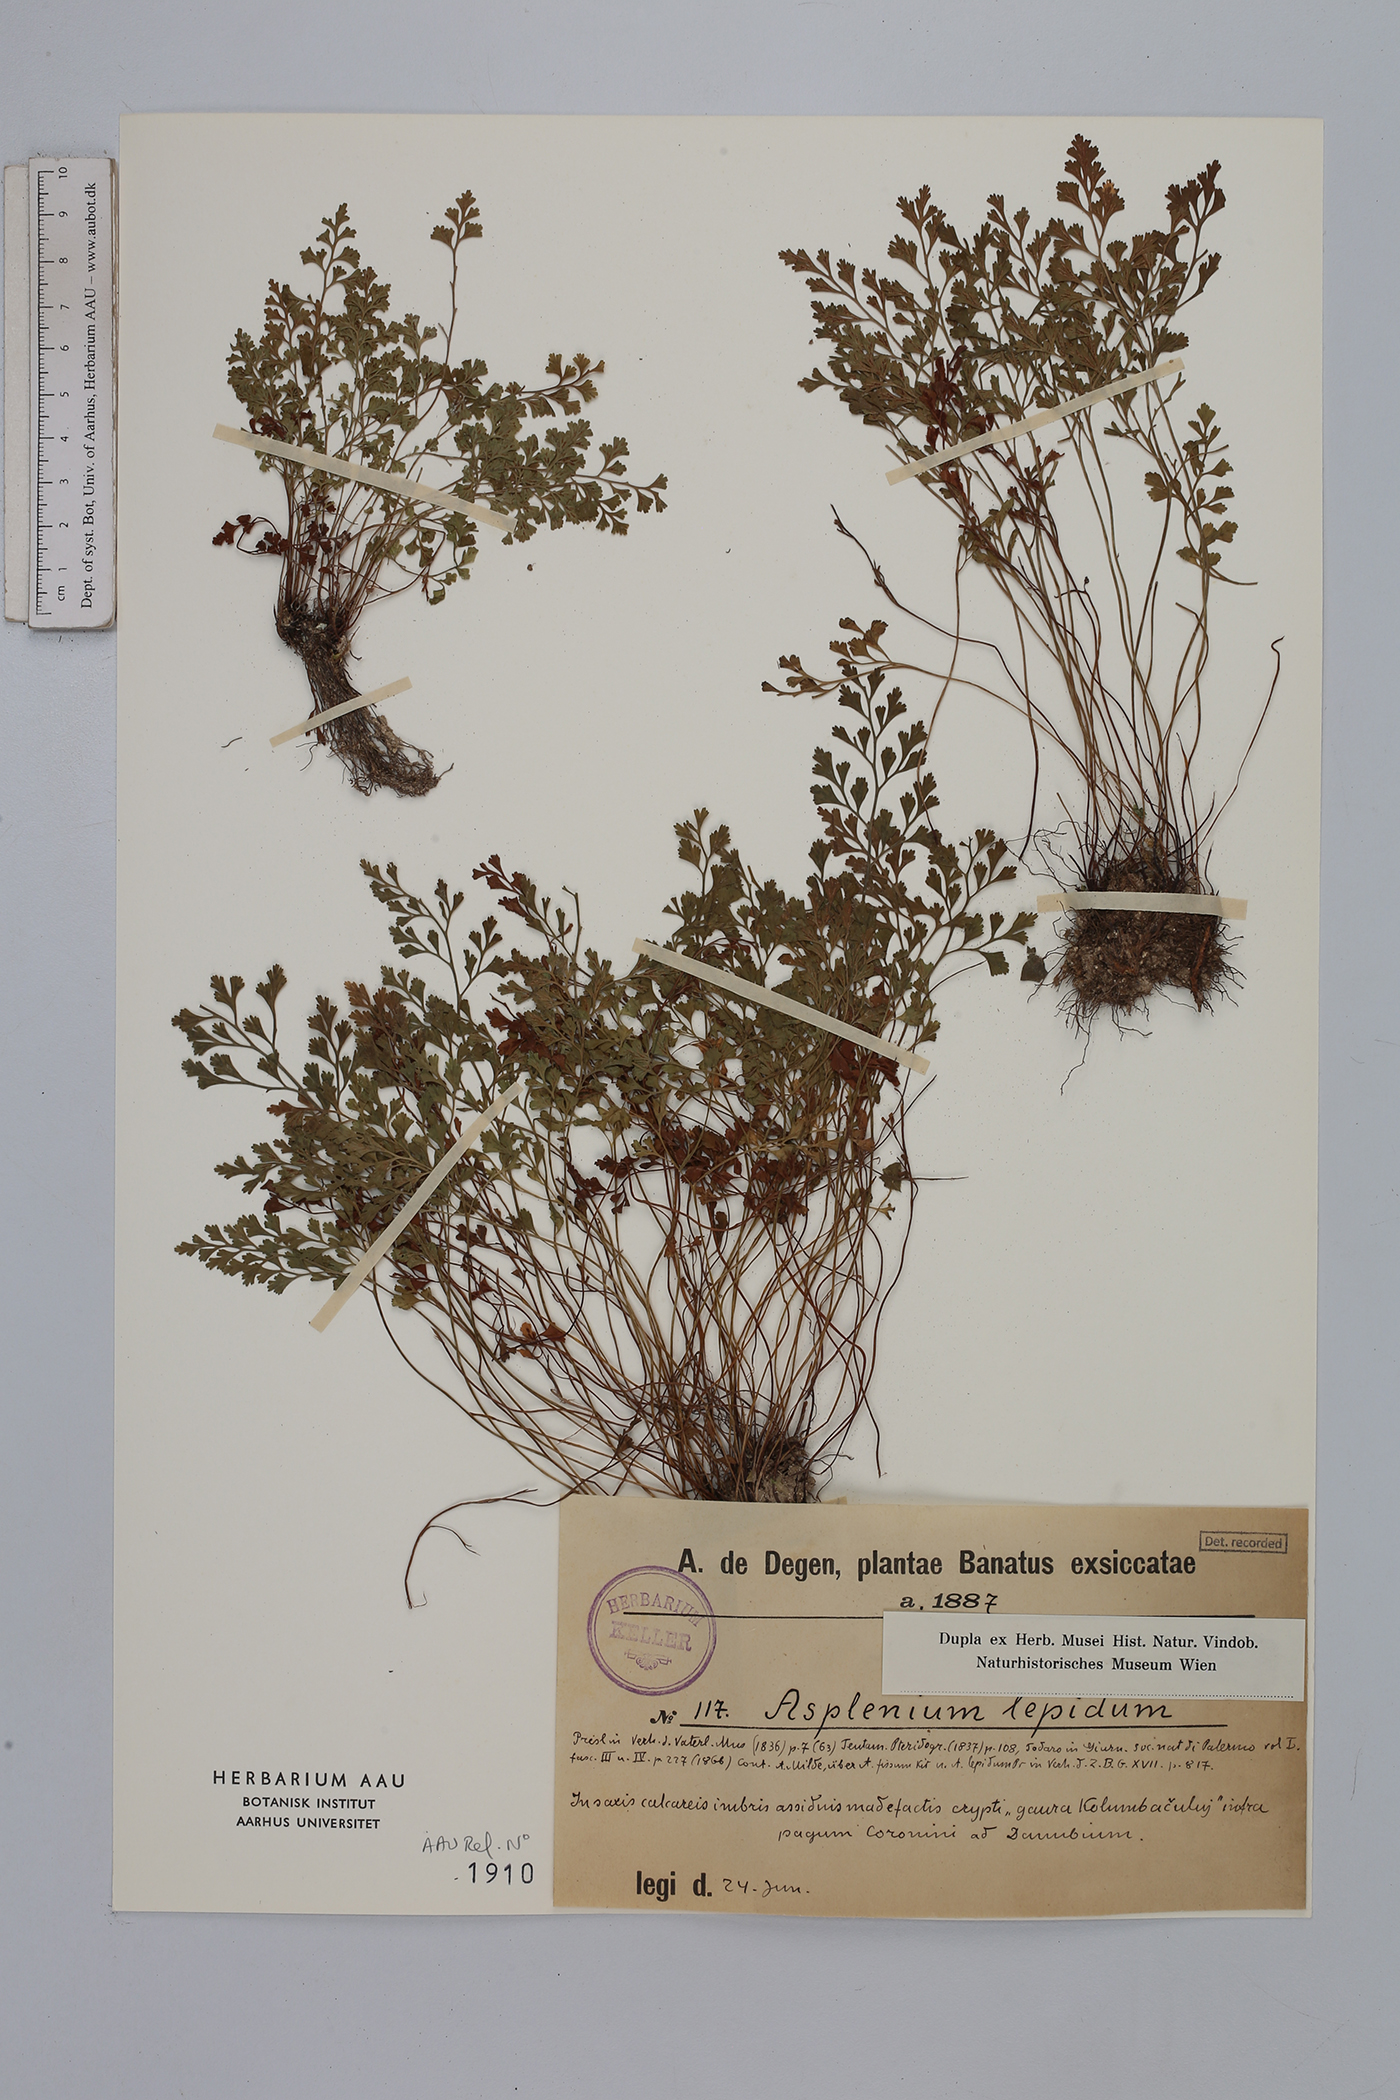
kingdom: Plantae
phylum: Tracheophyta
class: Polypodiopsida
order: Polypodiales
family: Aspleniaceae
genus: Asplenium
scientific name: Asplenium lepidum
